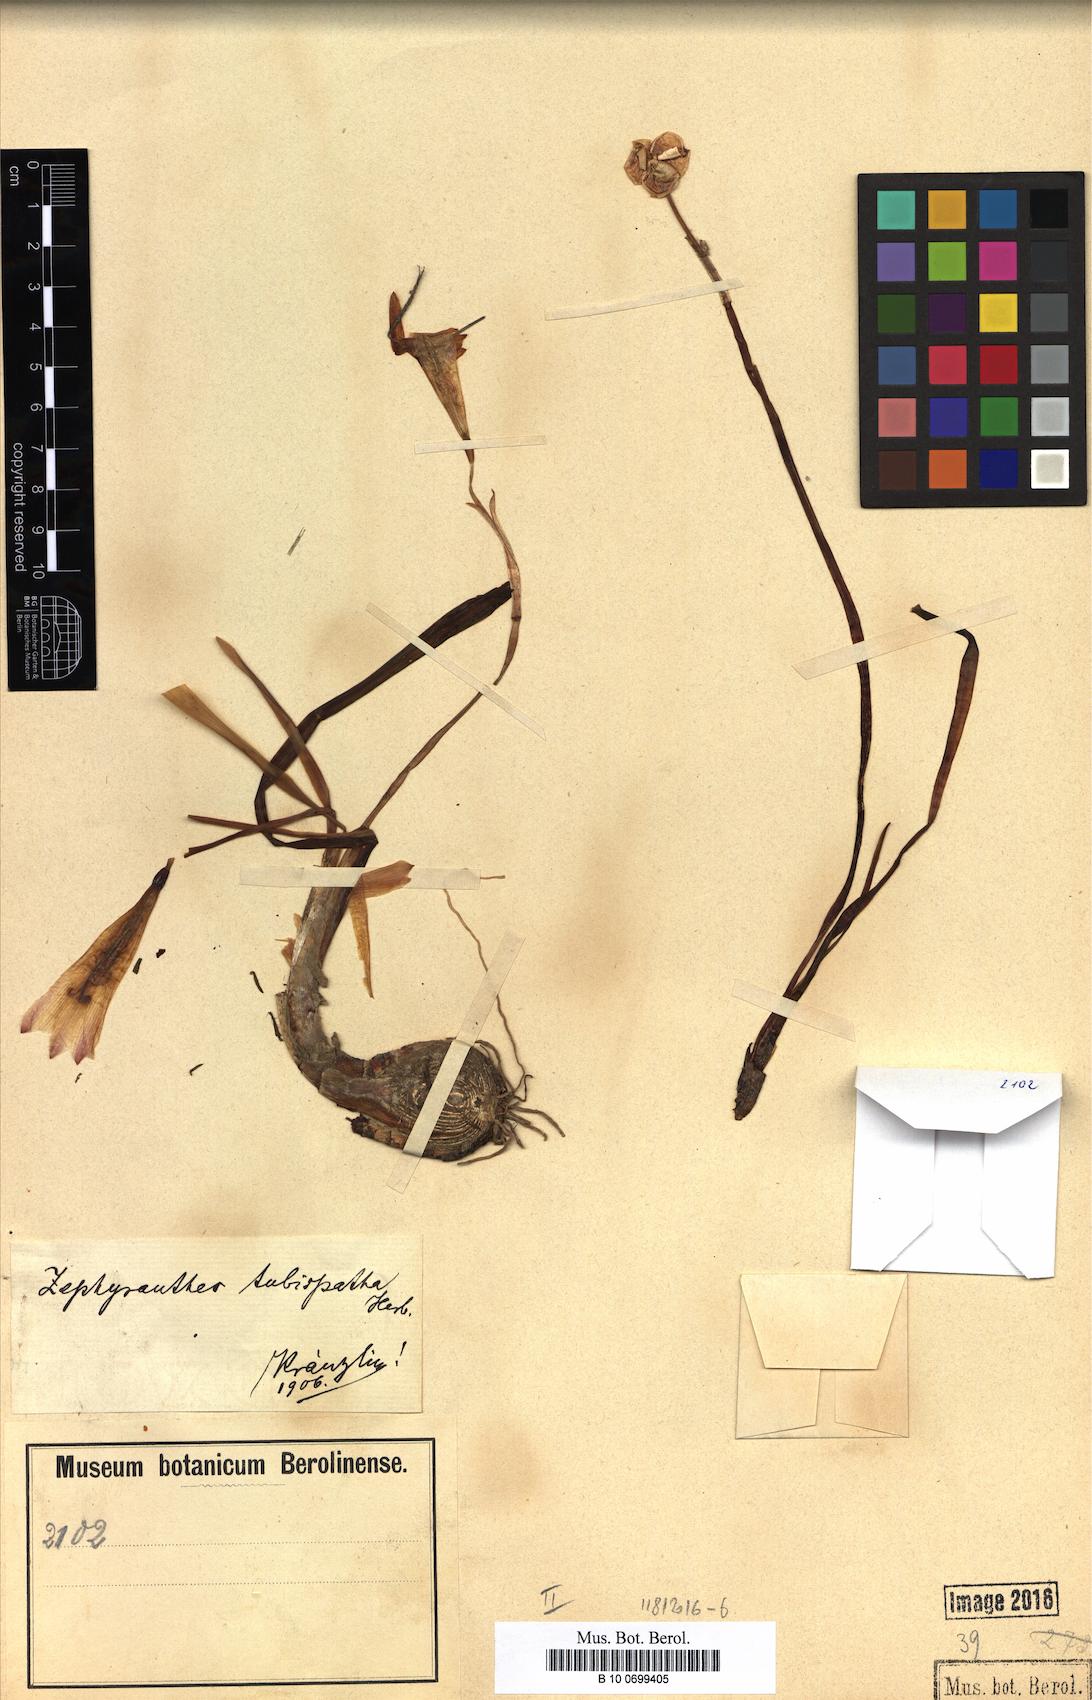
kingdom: Plantae
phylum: Tracheophyta
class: Liliopsida
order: Asparagales
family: Amaryllidaceae
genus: Zephyranthes
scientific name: Zephyranthes puertoricensis
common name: White snowdrop
